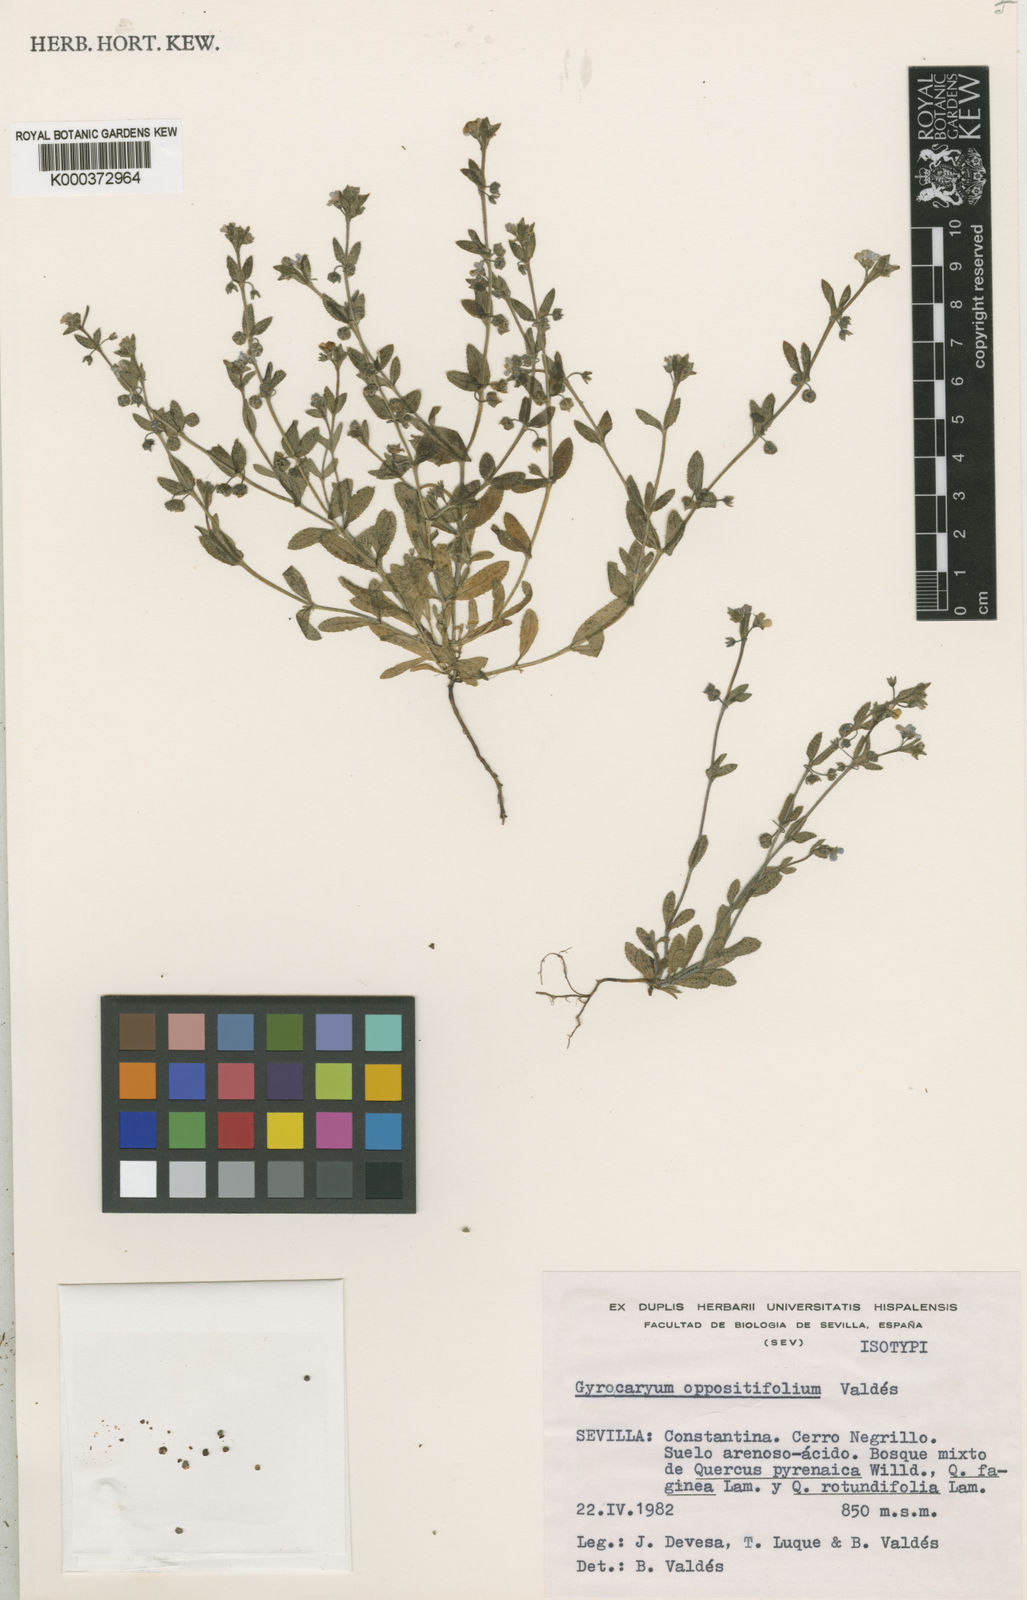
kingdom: Plantae
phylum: Tracheophyta
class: Magnoliopsida
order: Boraginales
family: Boraginaceae
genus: Gyrocaryum
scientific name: Gyrocaryum
